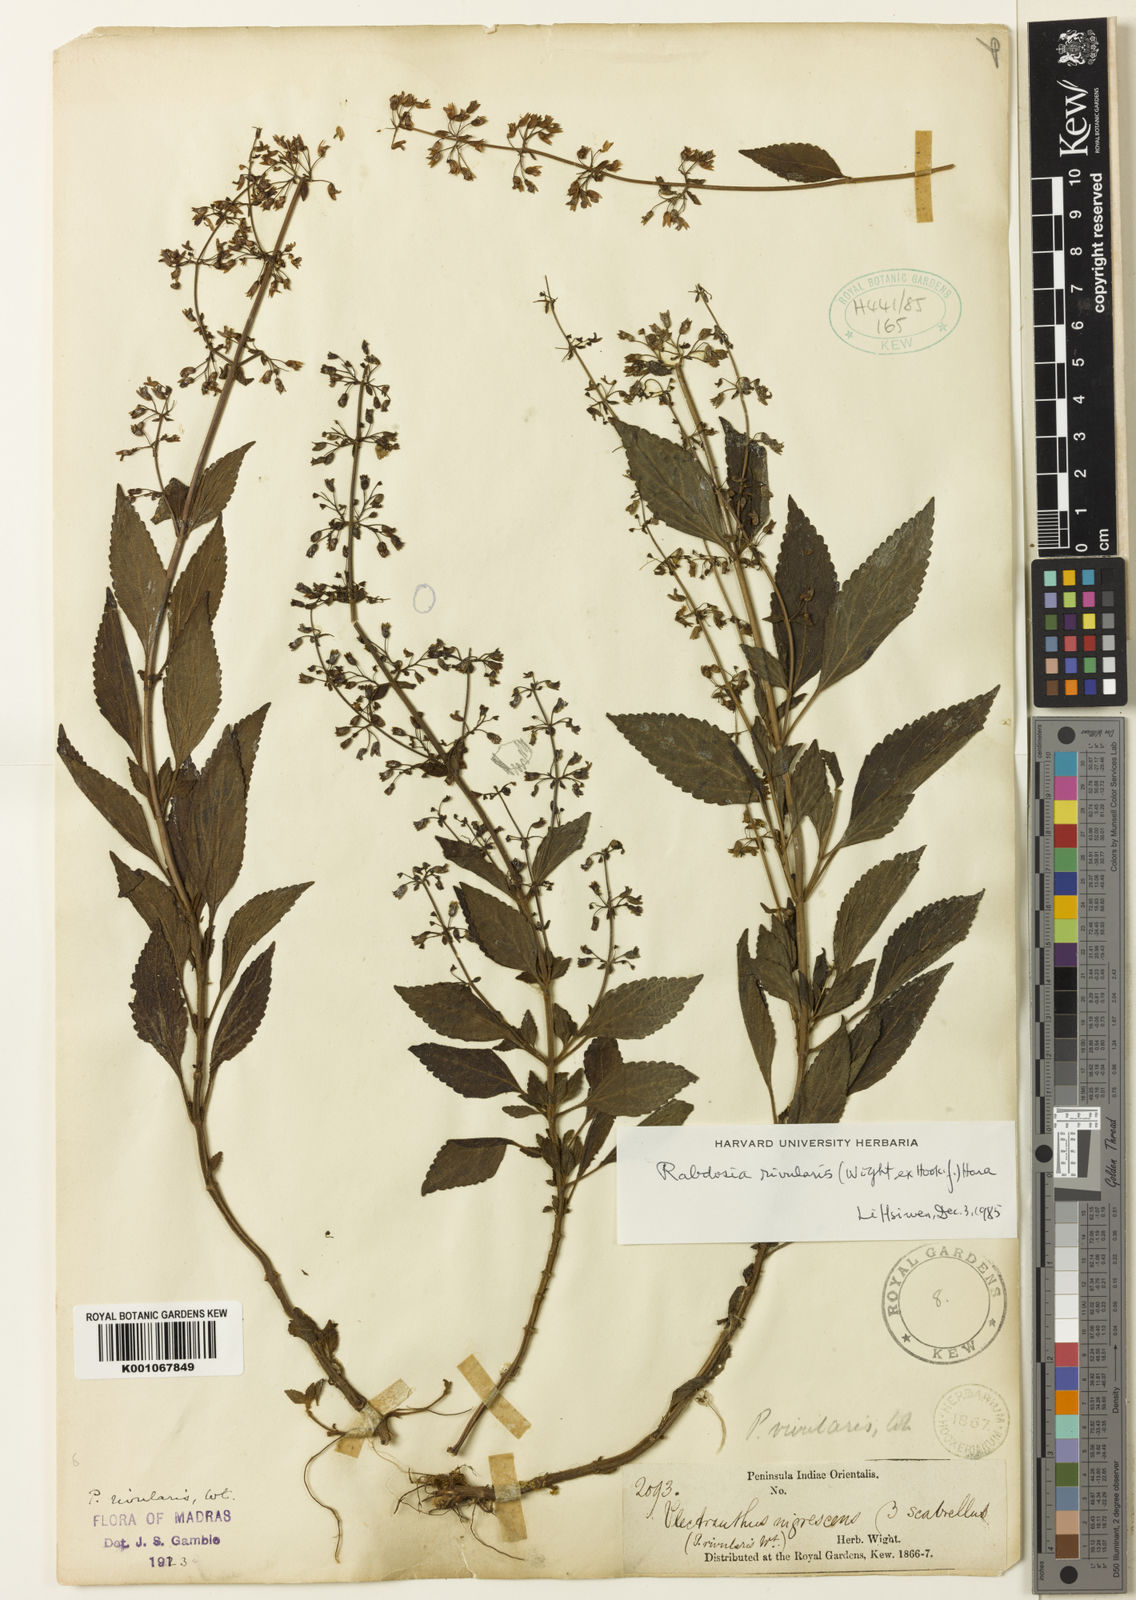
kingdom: Plantae
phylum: Tracheophyta
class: Magnoliopsida
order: Lamiales
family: Lamiaceae
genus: Isodon
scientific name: Isodon rivularis
